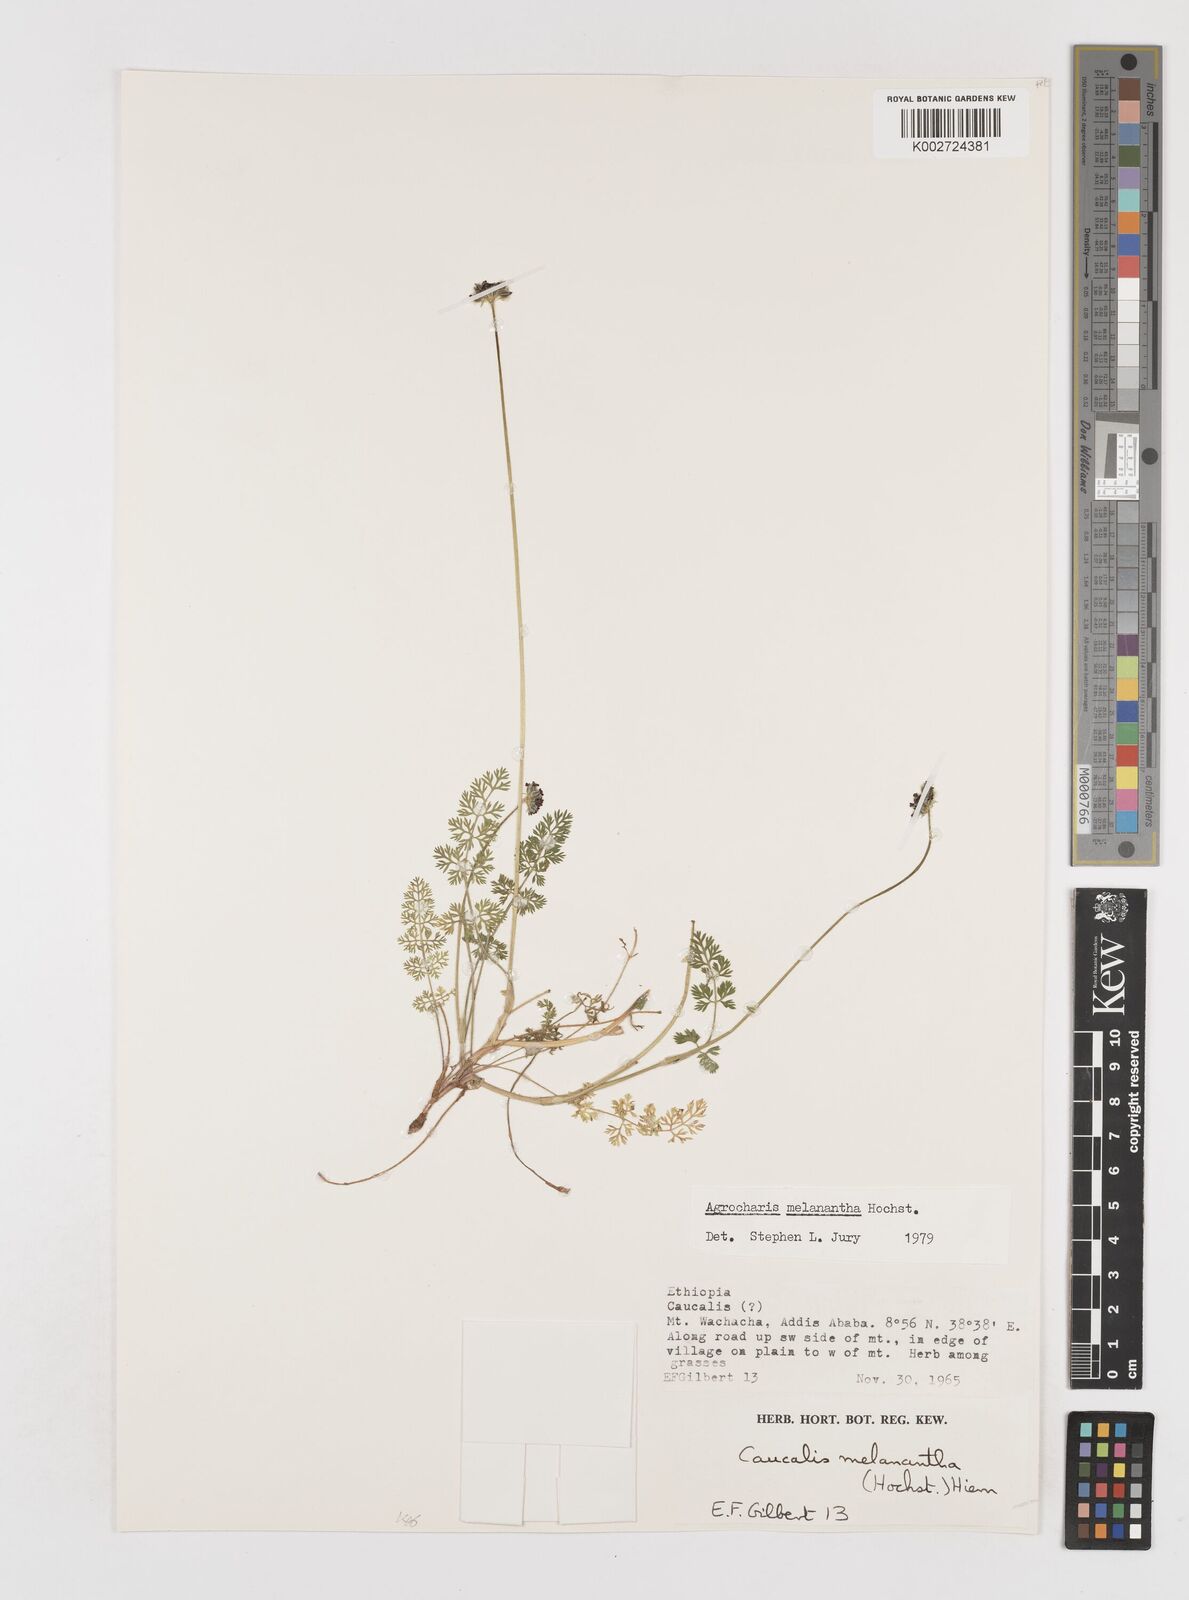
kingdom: Plantae
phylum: Tracheophyta
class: Magnoliopsida
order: Apiales
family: Apiaceae
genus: Daucus
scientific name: Daucus melananthus
